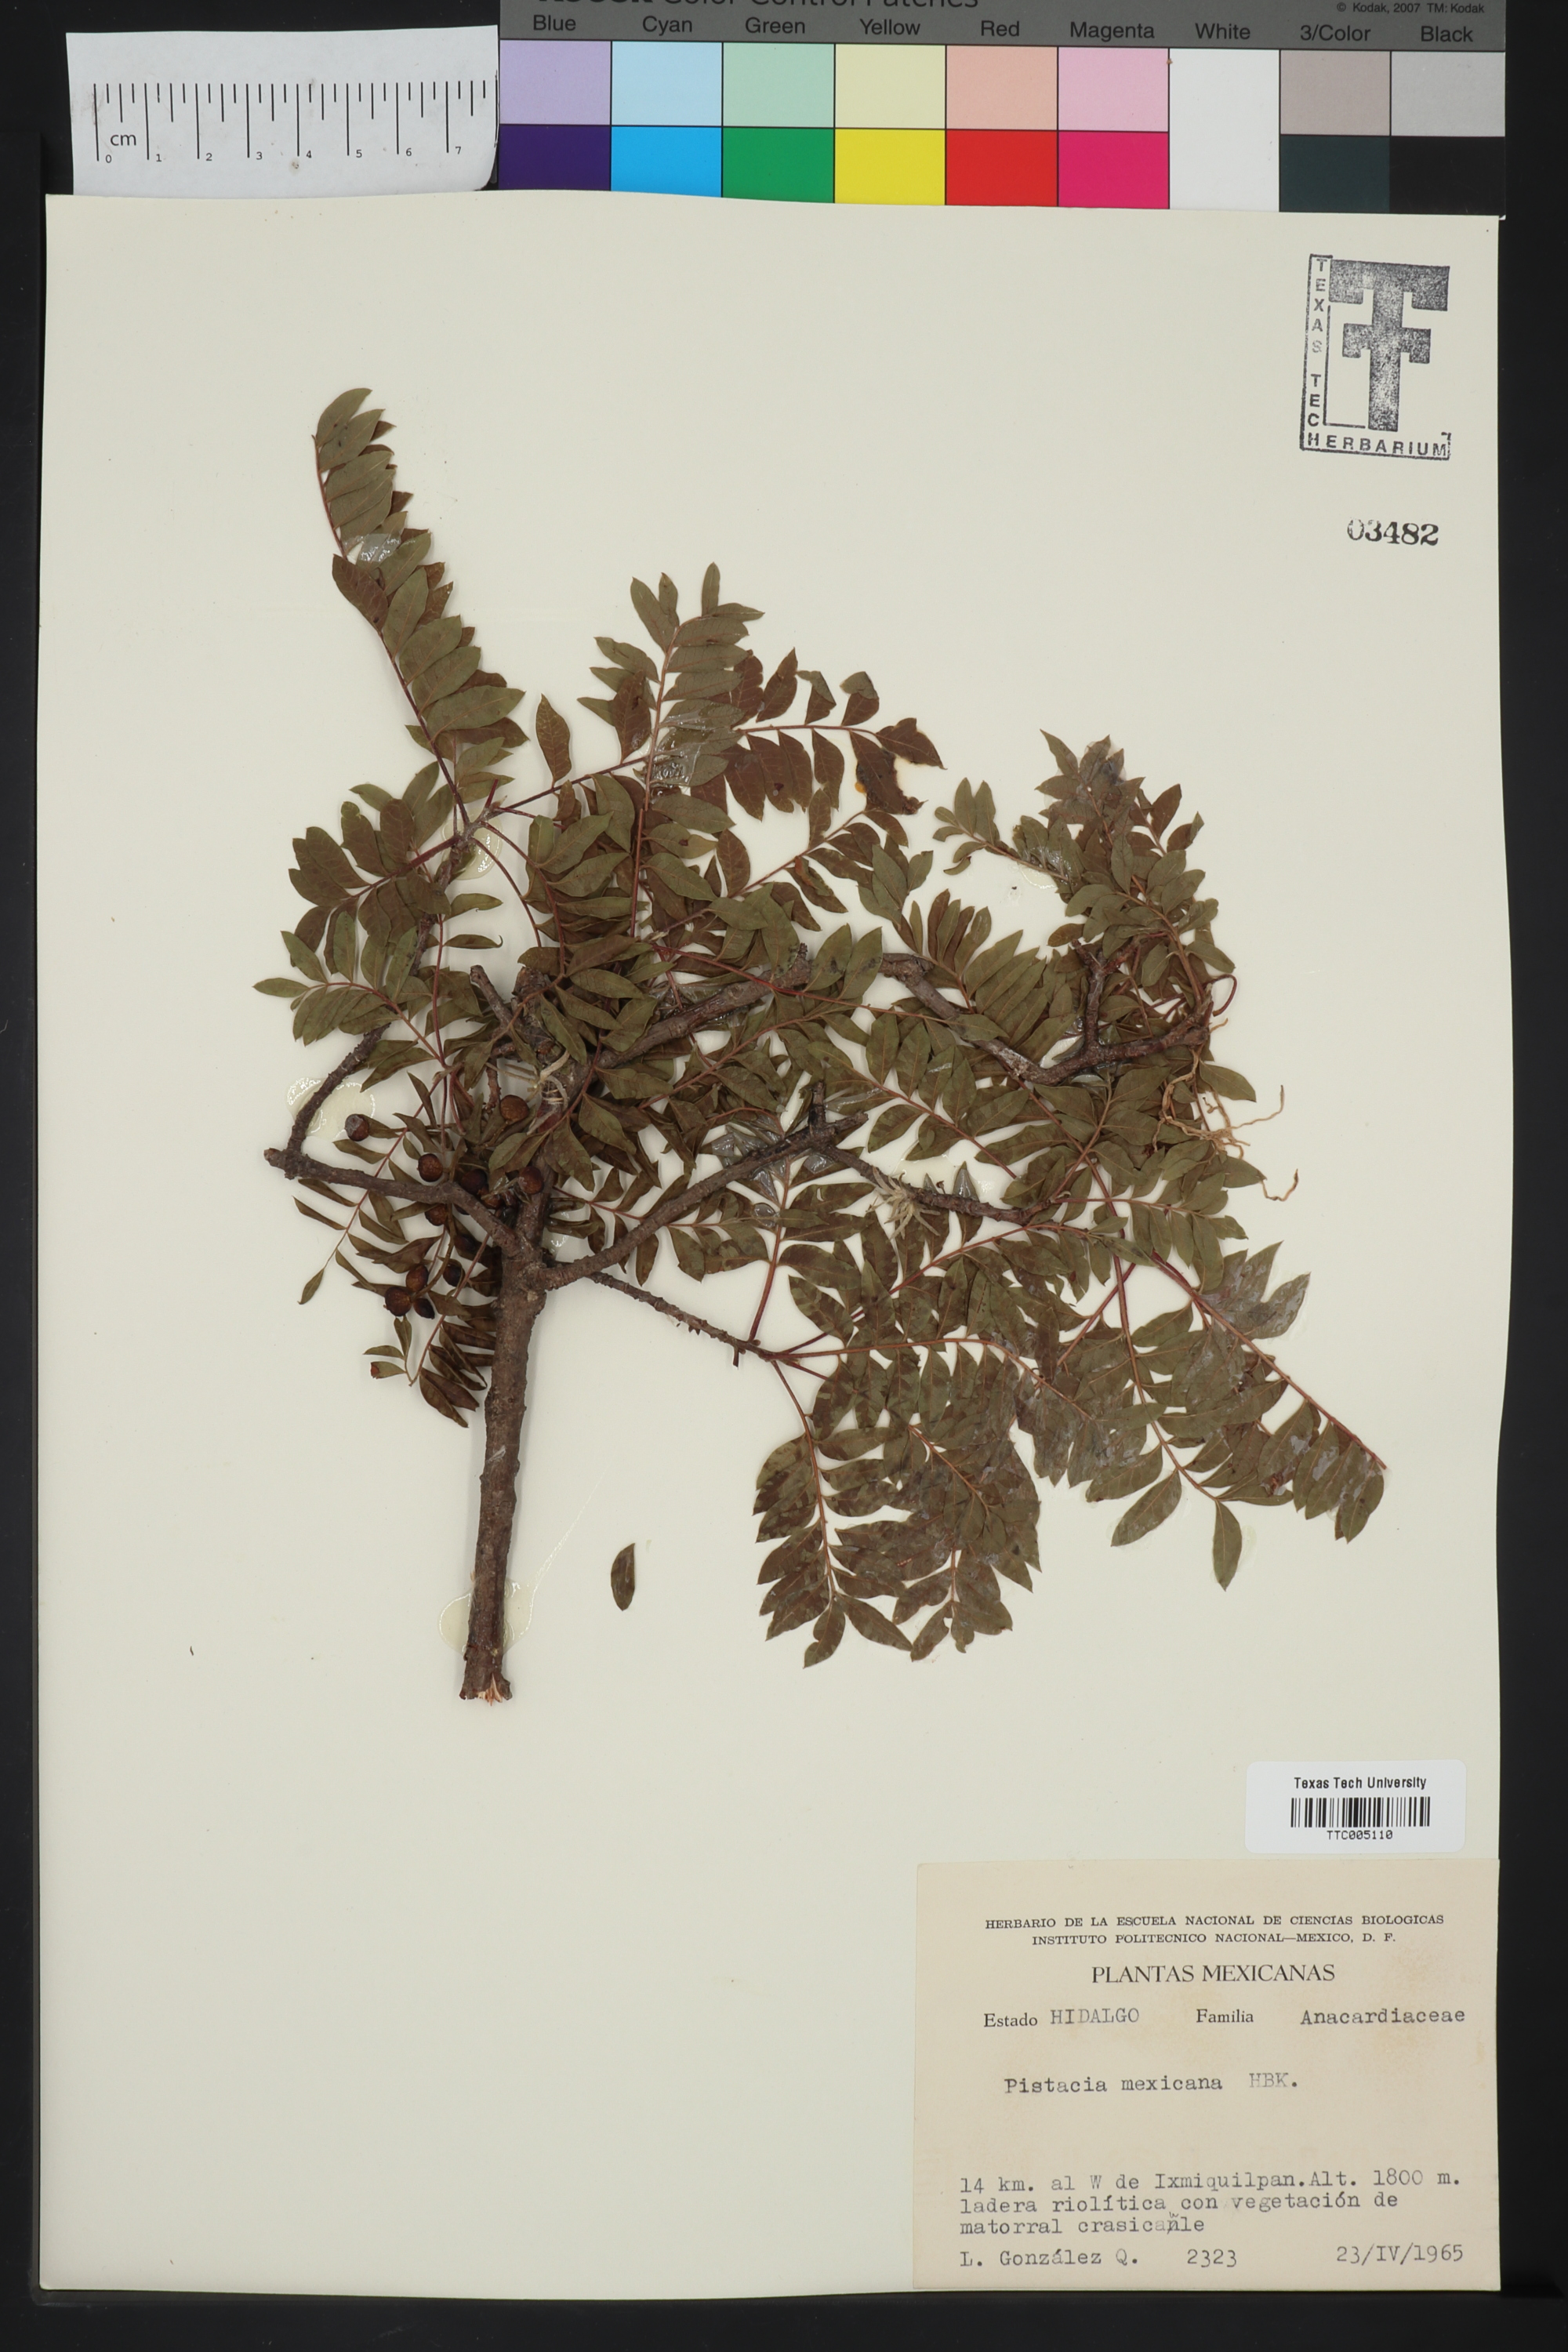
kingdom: Plantae
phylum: Tracheophyta
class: Magnoliopsida
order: Sapindales
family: Anacardiaceae
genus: Pistacia
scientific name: Pistacia mexicana
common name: Mexican pistachio
